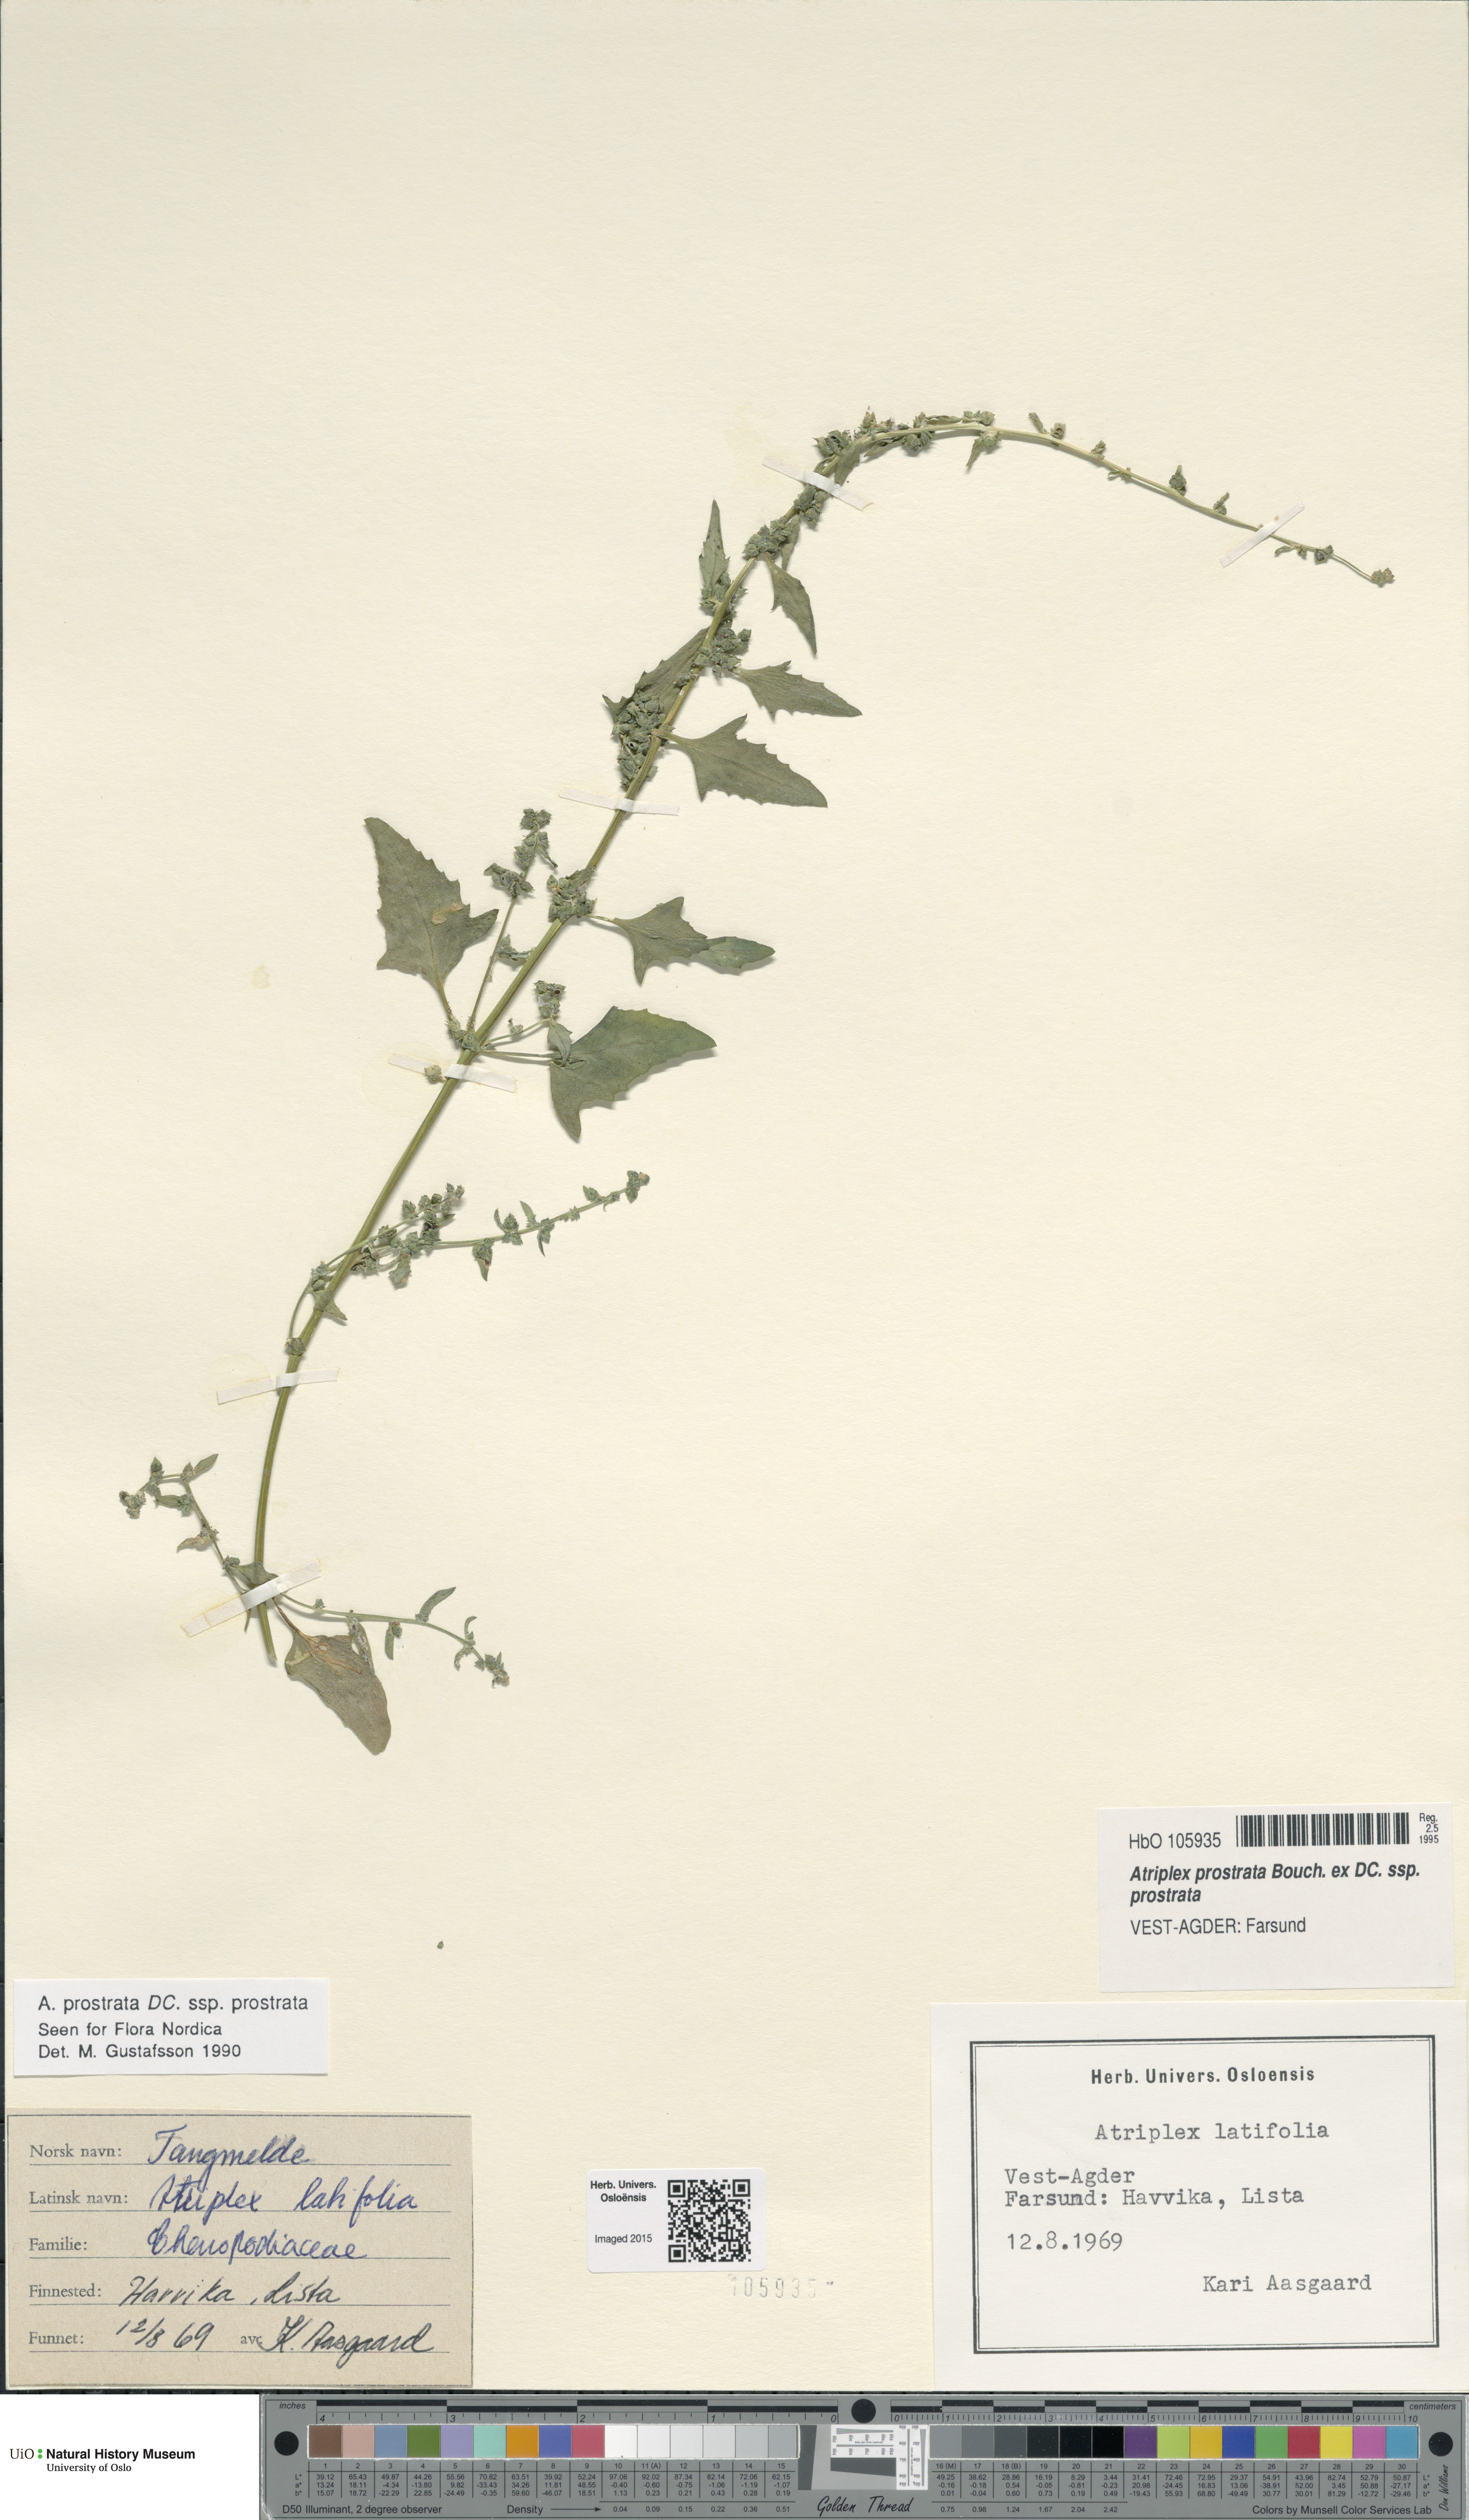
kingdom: Plantae
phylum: Tracheophyta
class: Magnoliopsida
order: Caryophyllales
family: Amaranthaceae
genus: Atriplex
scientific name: Atriplex prostrata
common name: Spear-leaved orache
